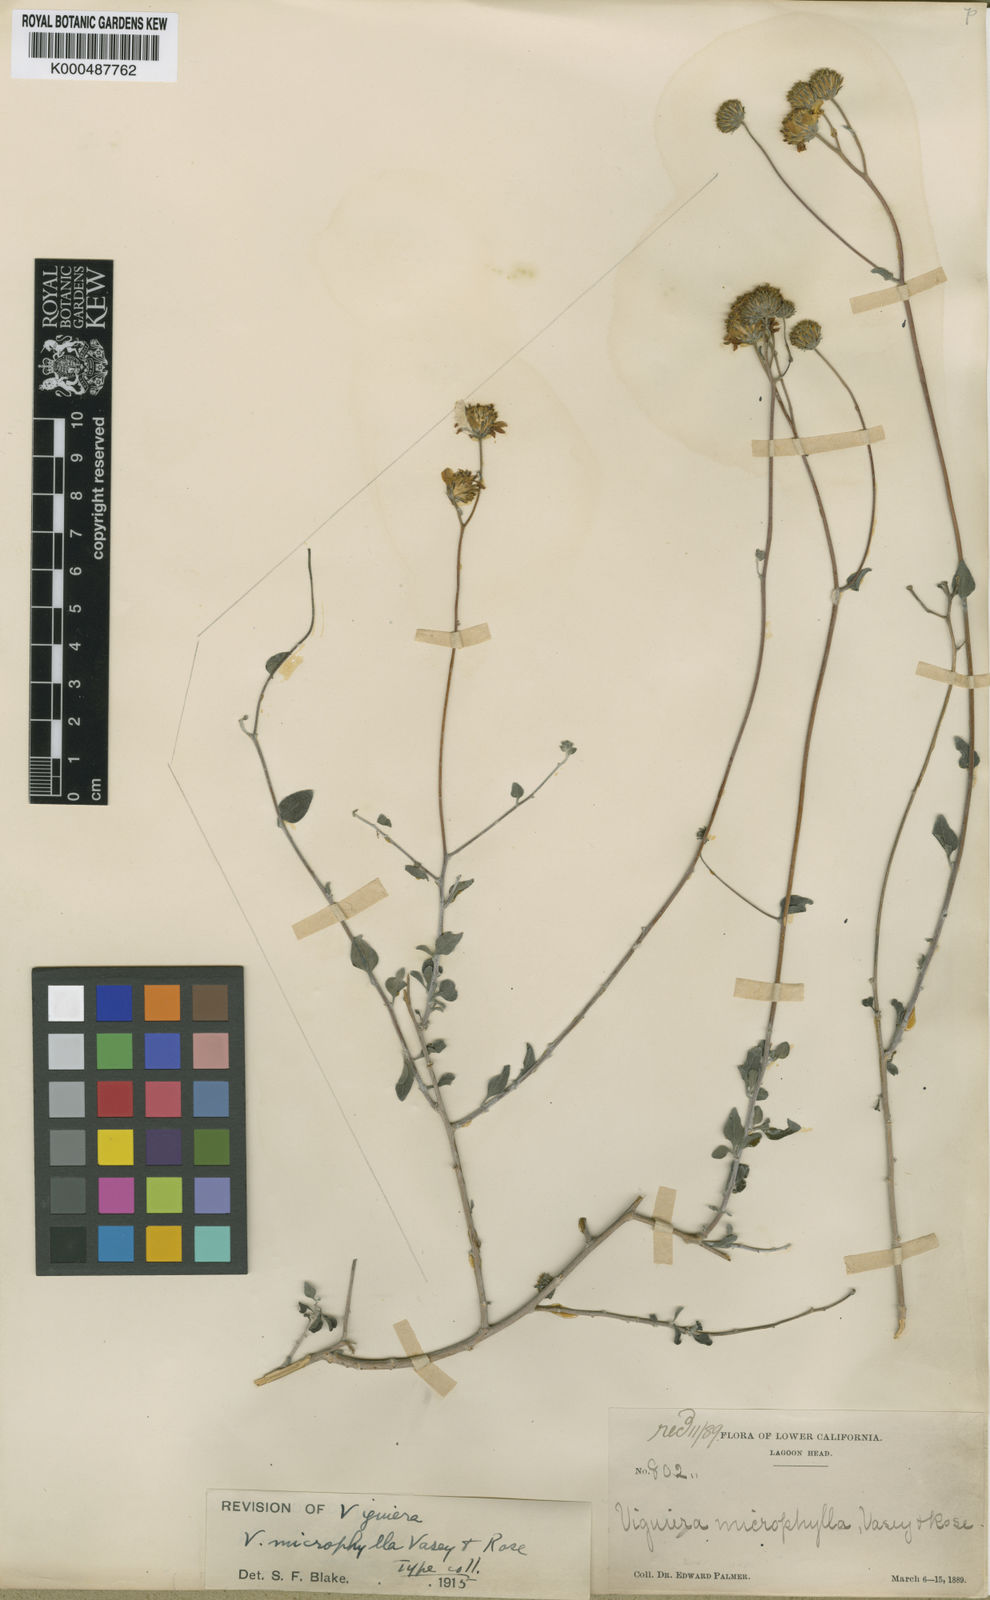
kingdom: Plantae
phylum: Tracheophyta
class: Magnoliopsida
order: Asterales
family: Asteraceae
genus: Bahiopsis
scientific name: Bahiopsis microphylla
